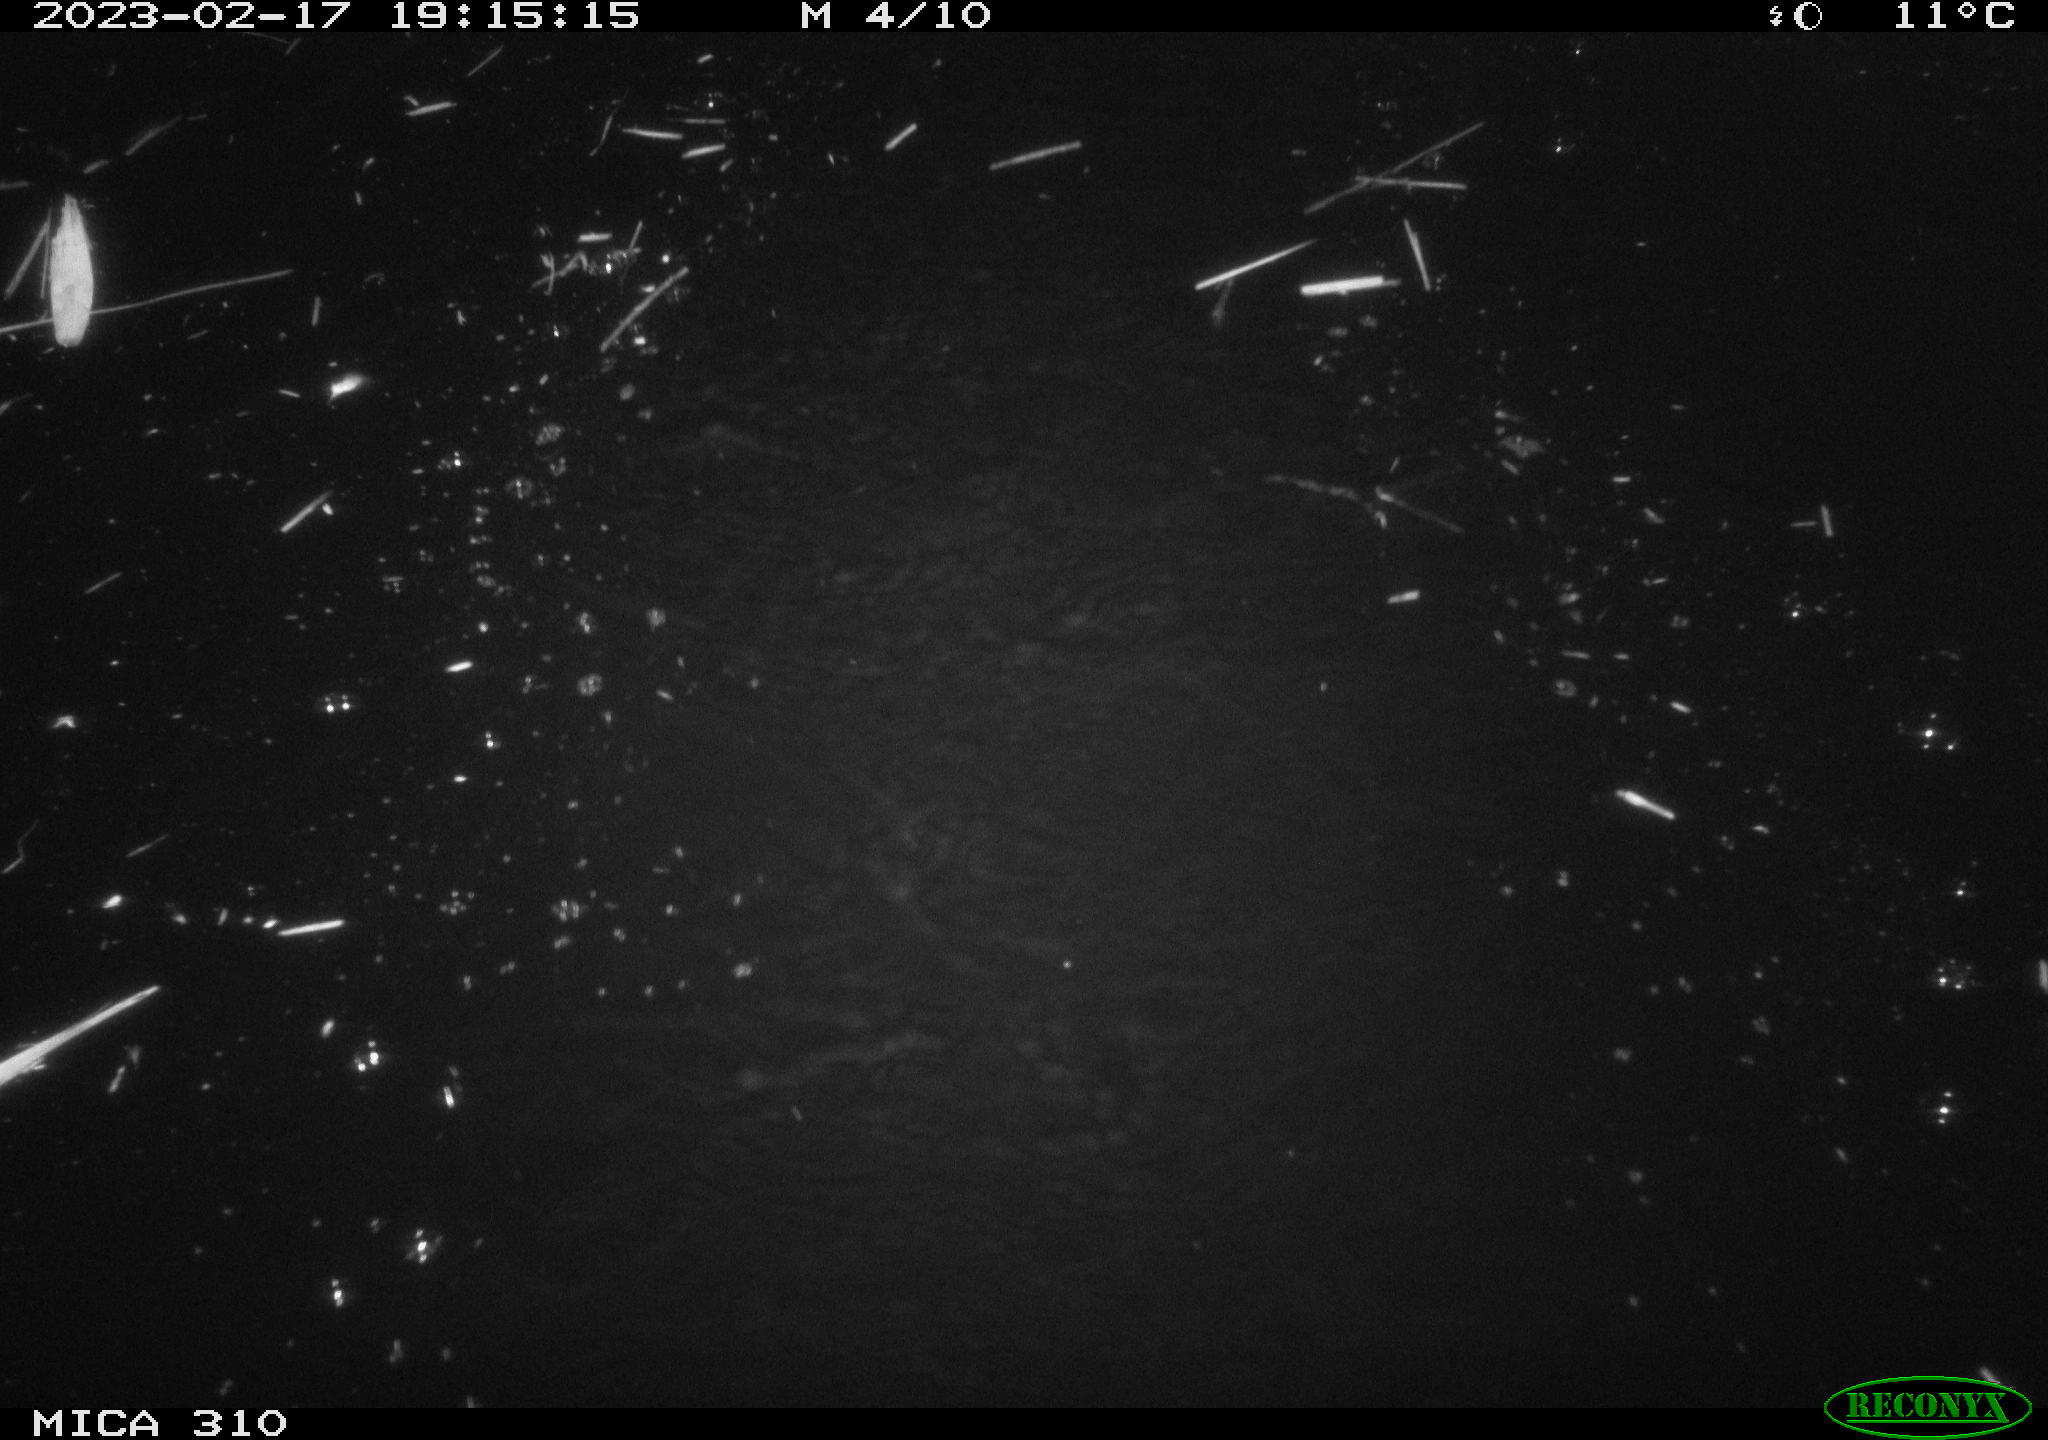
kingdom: Animalia
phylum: Chordata
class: Aves
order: Anseriformes
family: Anatidae
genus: Anas
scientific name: Anas
